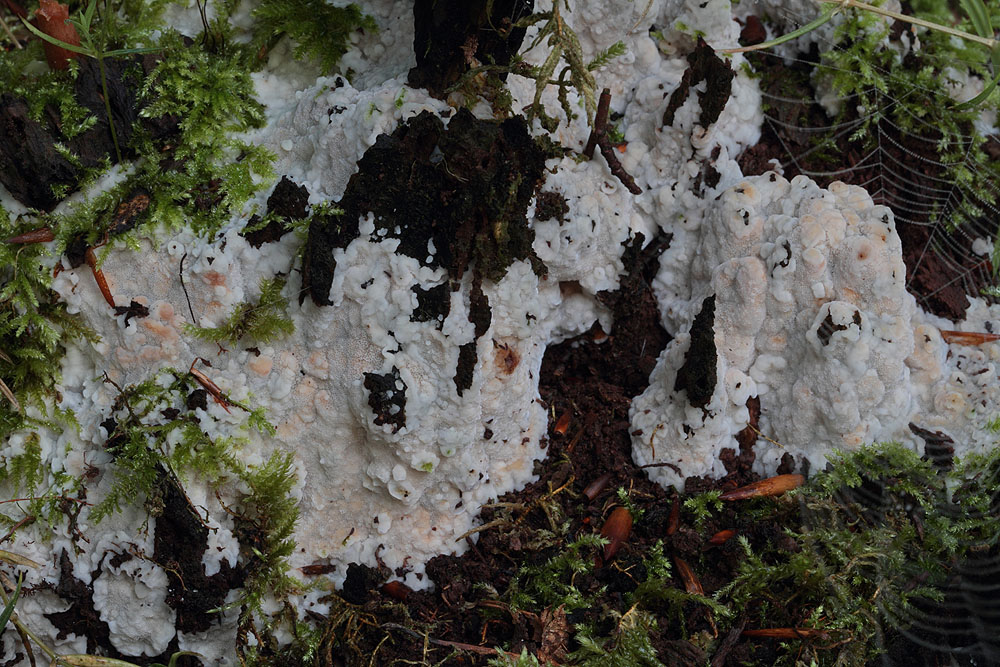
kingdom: Fungi
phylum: Basidiomycota
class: Agaricomycetes
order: Polyporales
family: Meripilaceae
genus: Rigidoporus
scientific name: Rigidoporus sanguinolentus
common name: blod-skorpeporesvamp
